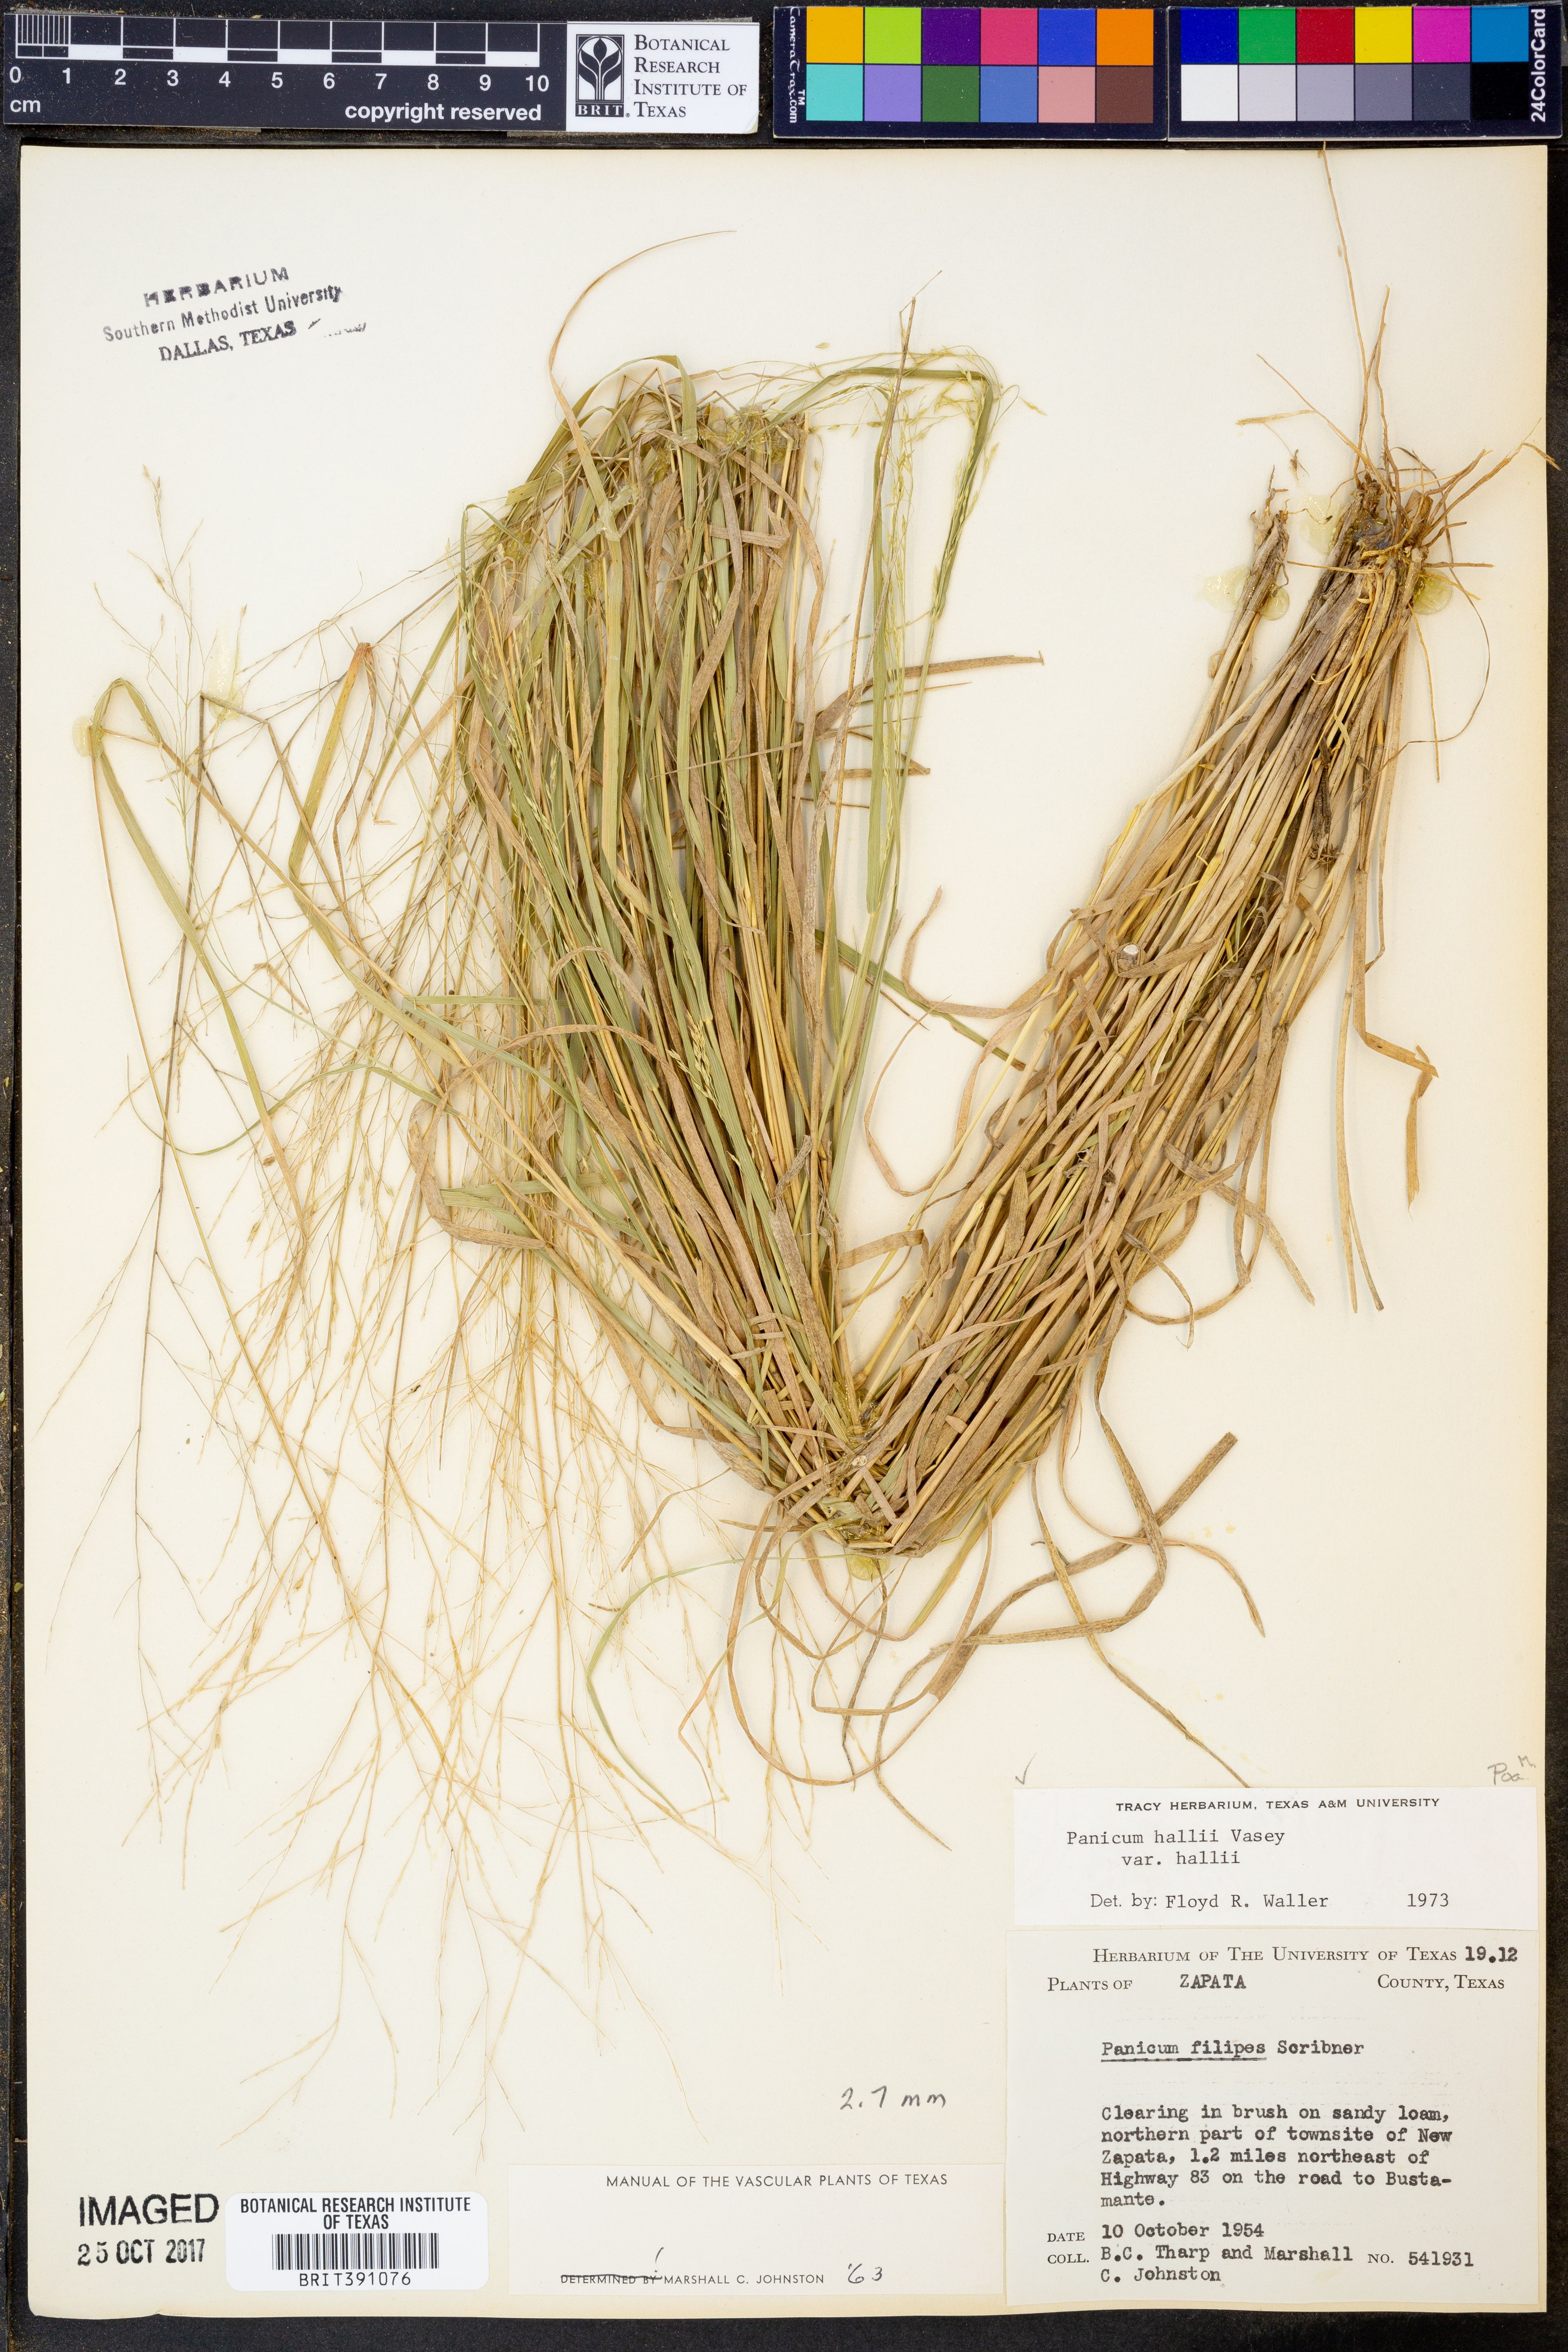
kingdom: Plantae
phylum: Tracheophyta
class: Liliopsida
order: Poales
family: Poaceae
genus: Panicum
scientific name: Panicum hallii
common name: Hall's witchgrass
